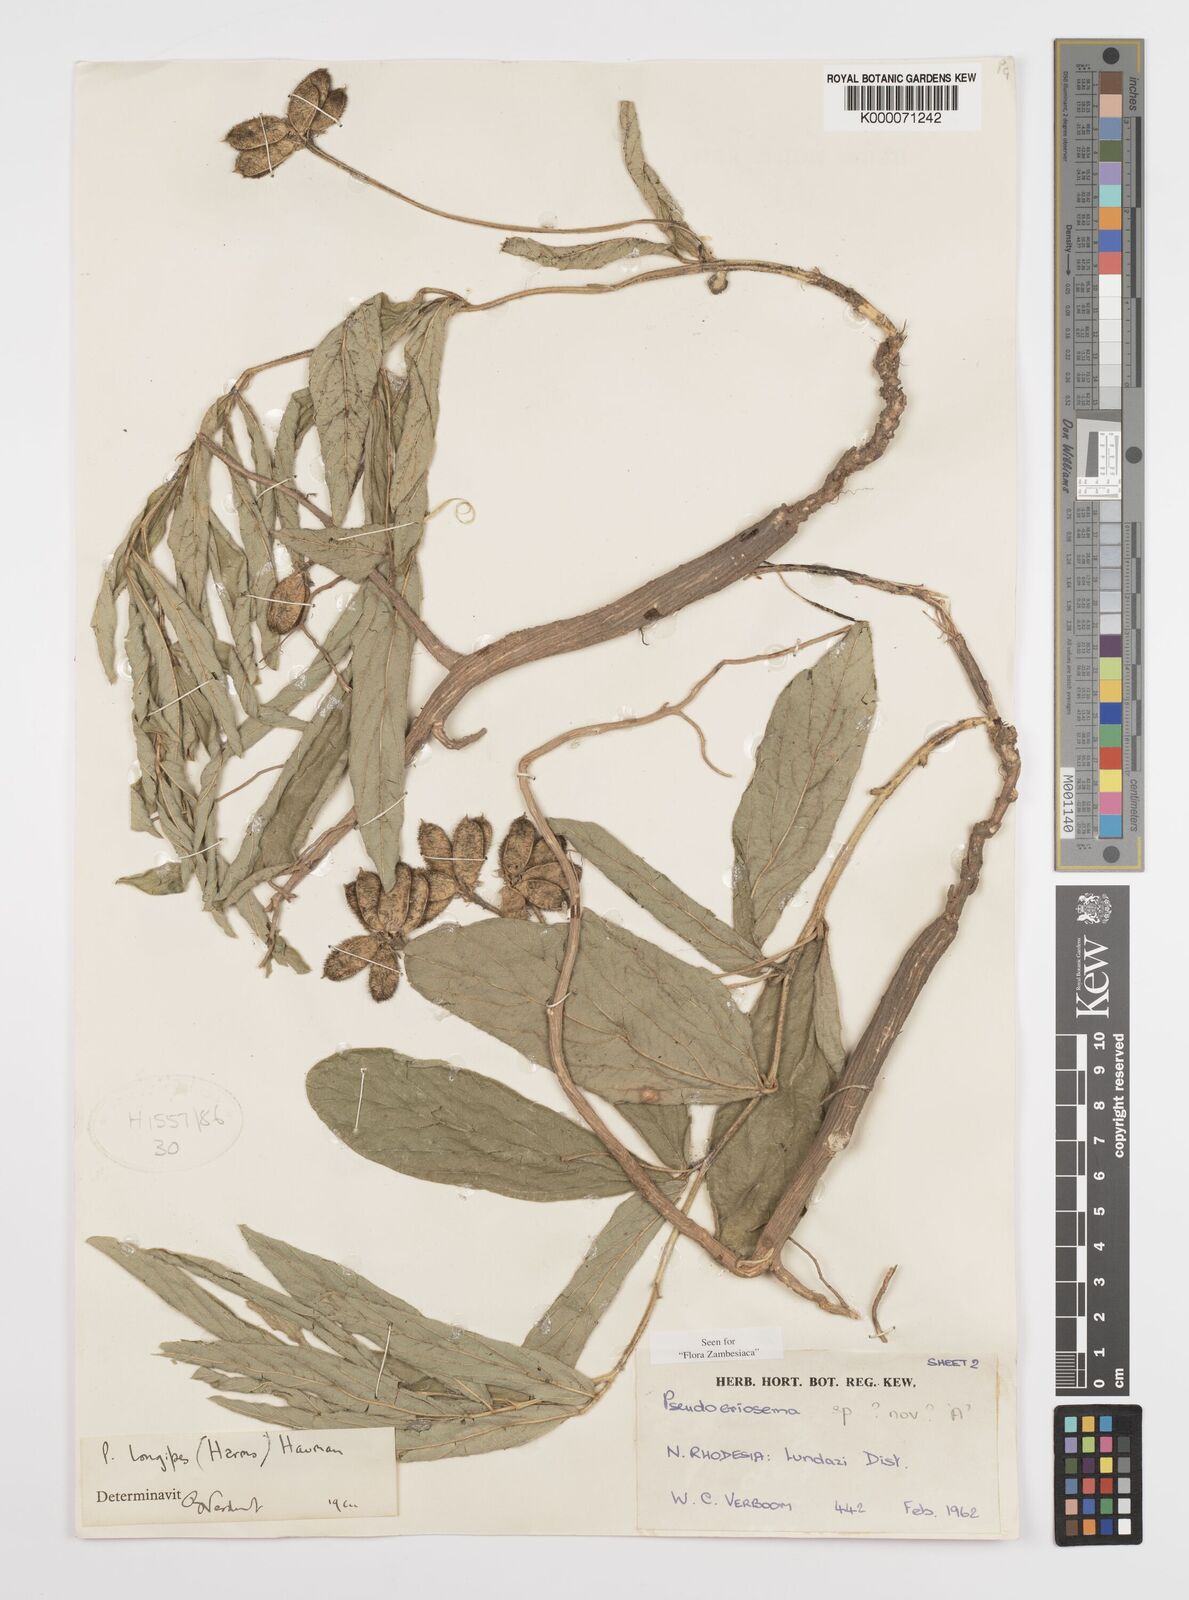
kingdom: Plantae
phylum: Tracheophyta
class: Magnoliopsida
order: Fabales
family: Fabaceae
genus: Pseudoeriosema
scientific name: Pseudoeriosema longipes
